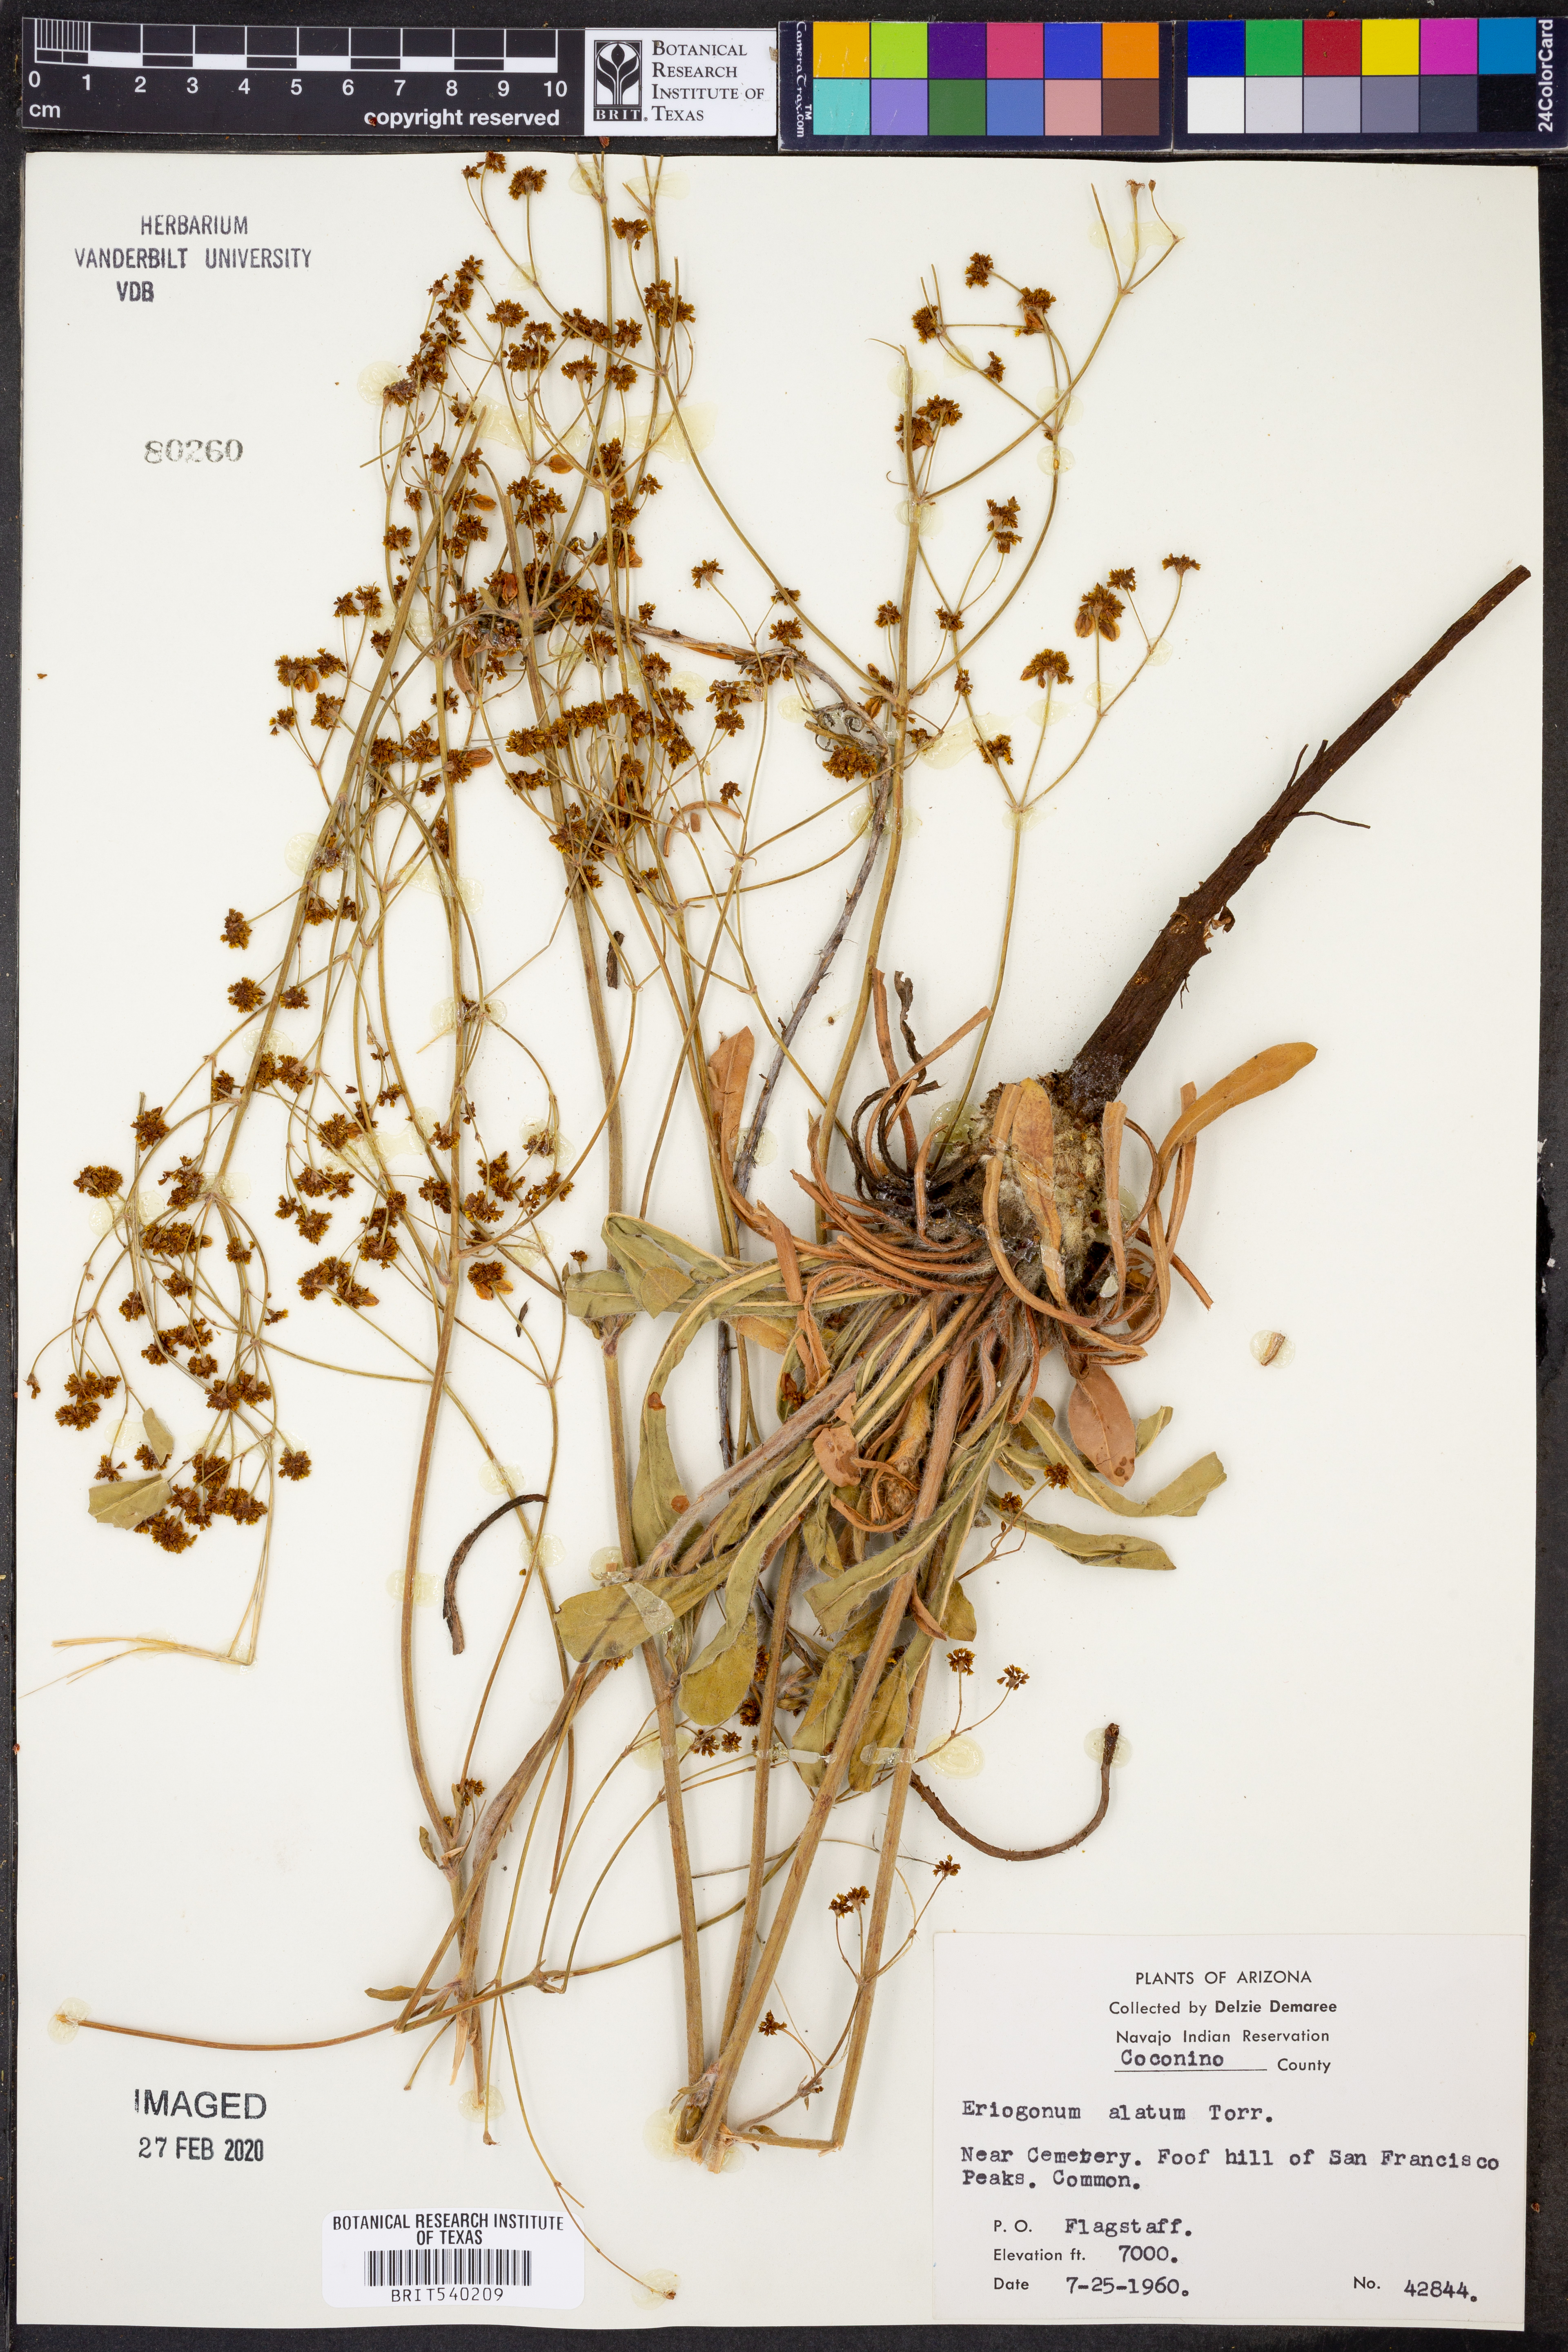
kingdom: Plantae
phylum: Tracheophyta
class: Magnoliopsida
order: Caryophyllales
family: Polygonaceae
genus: Eriogonum
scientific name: Eriogonum alatum
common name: Winged eriogonum
